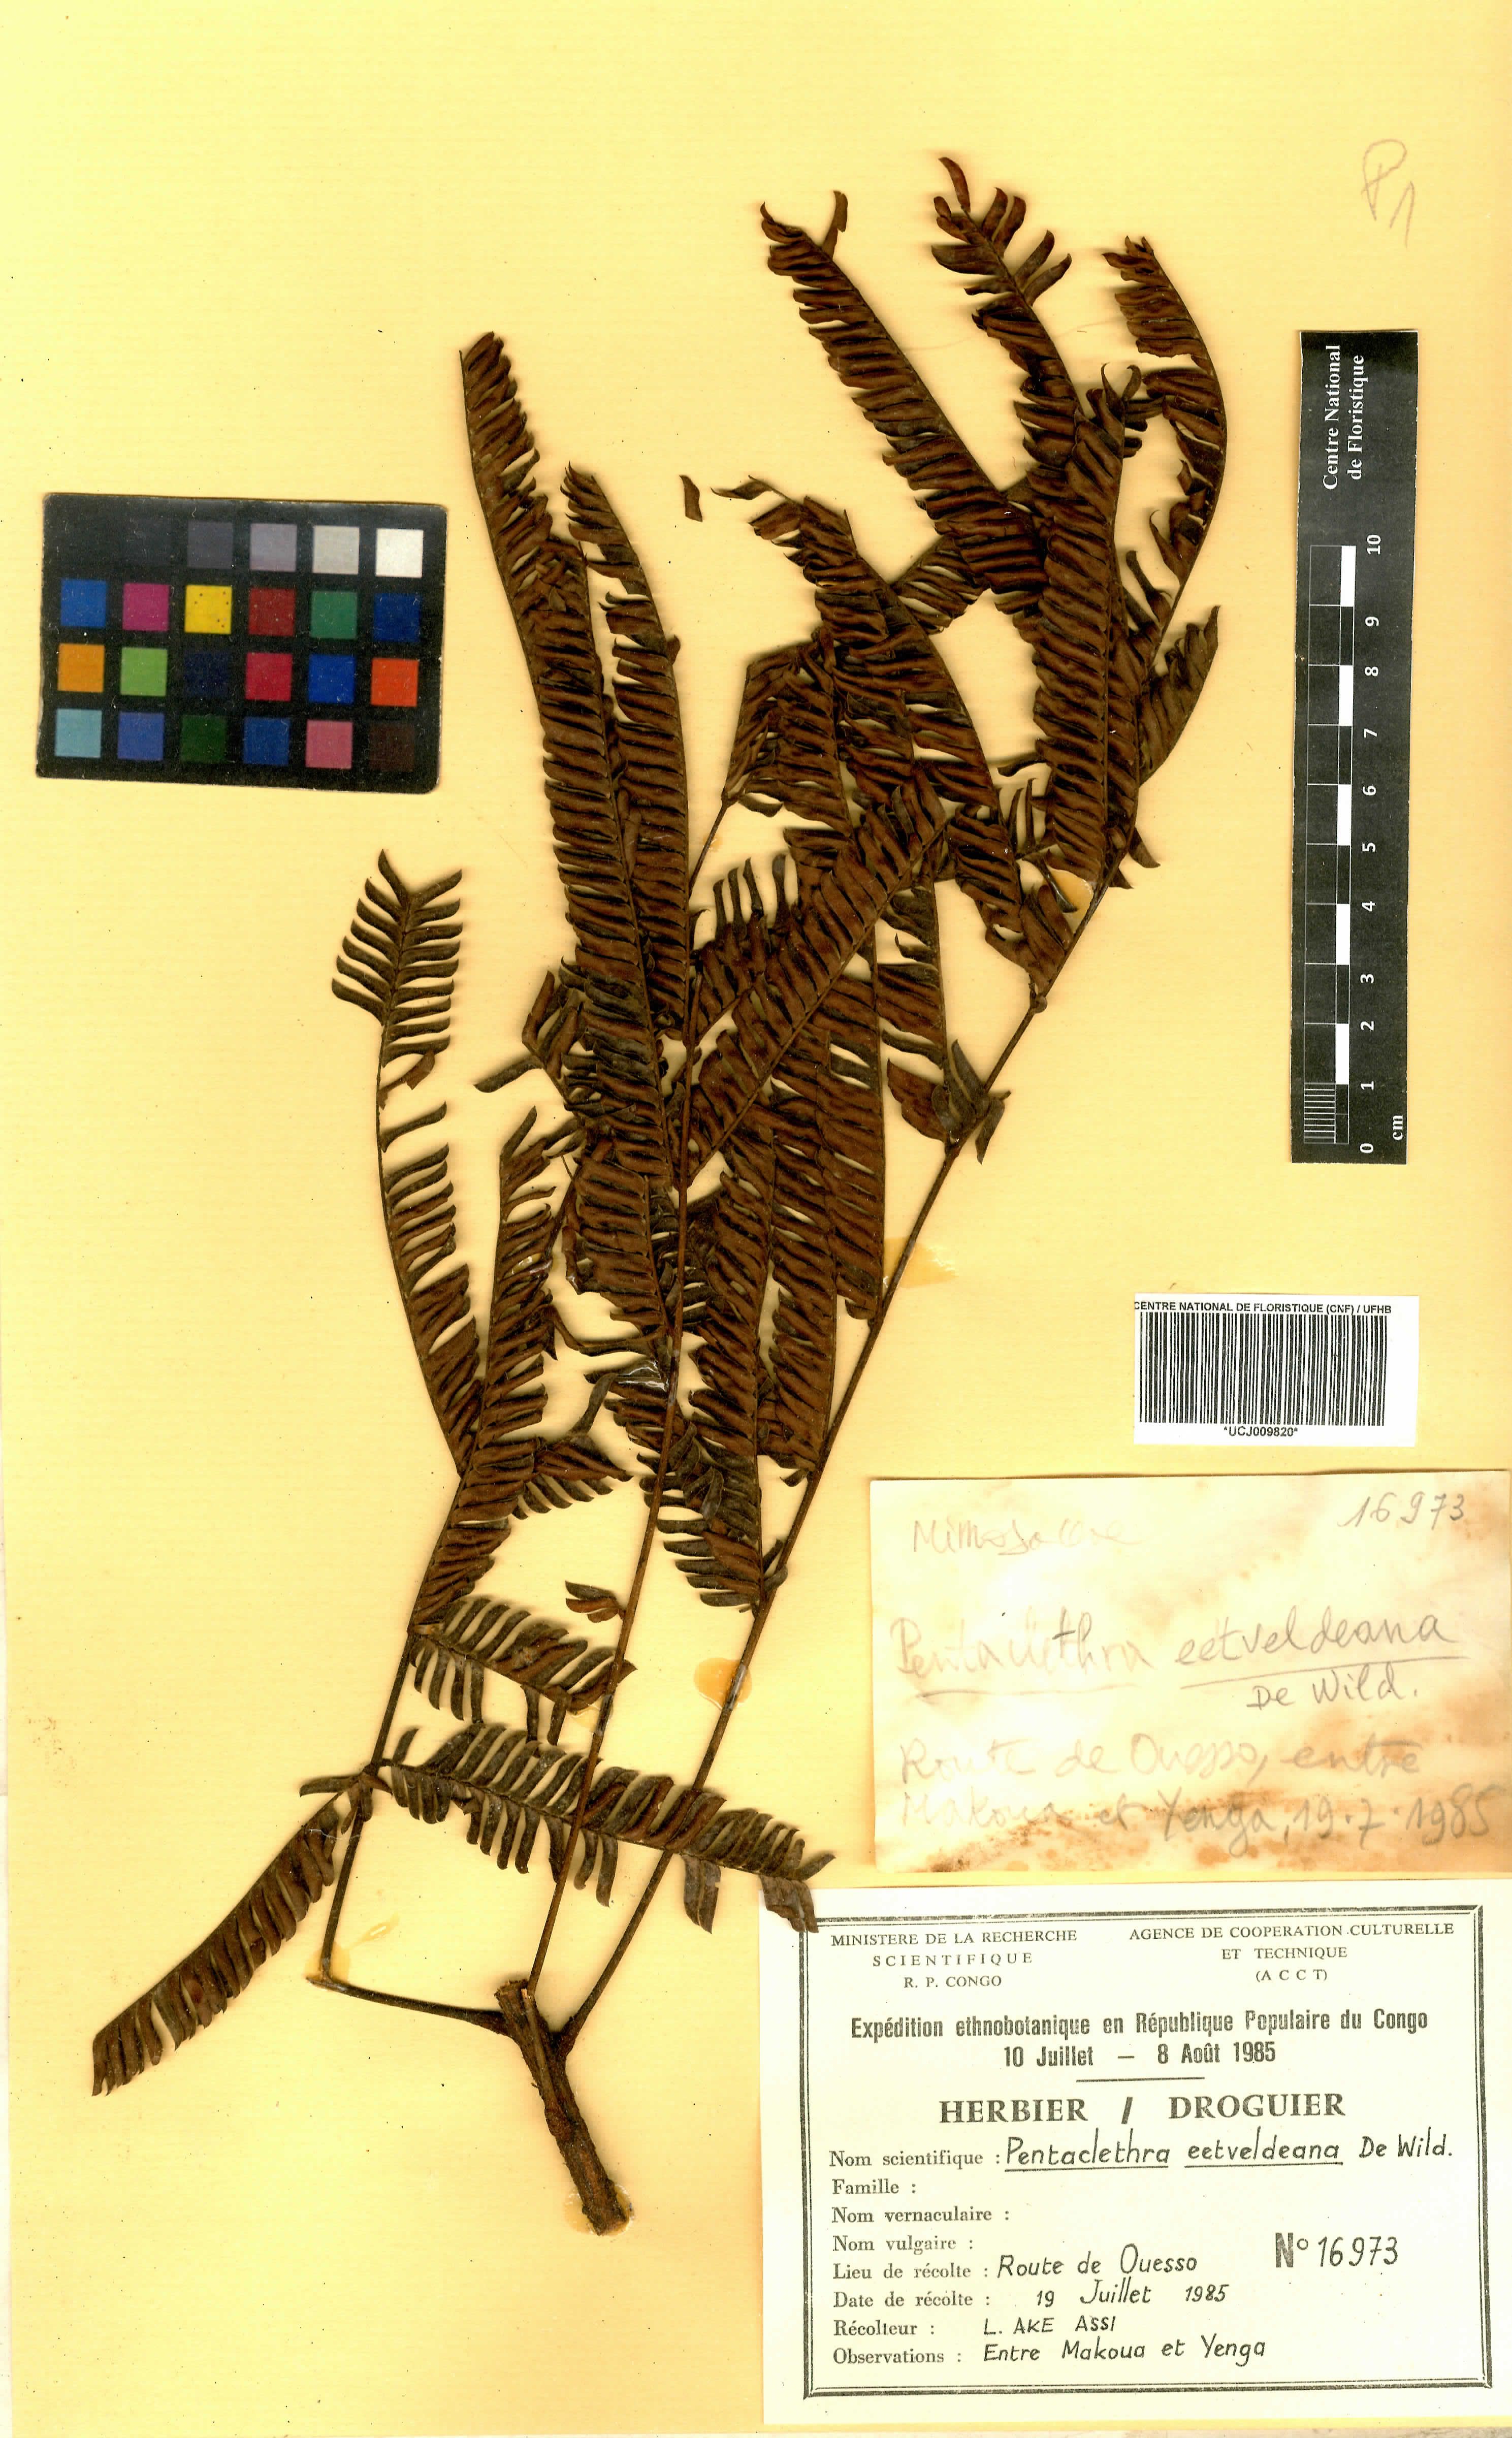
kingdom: Plantae
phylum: Tracheophyta
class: Magnoliopsida
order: Fabales
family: Fabaceae
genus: Pentaclethra
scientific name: Pentaclethra eetveldeana
